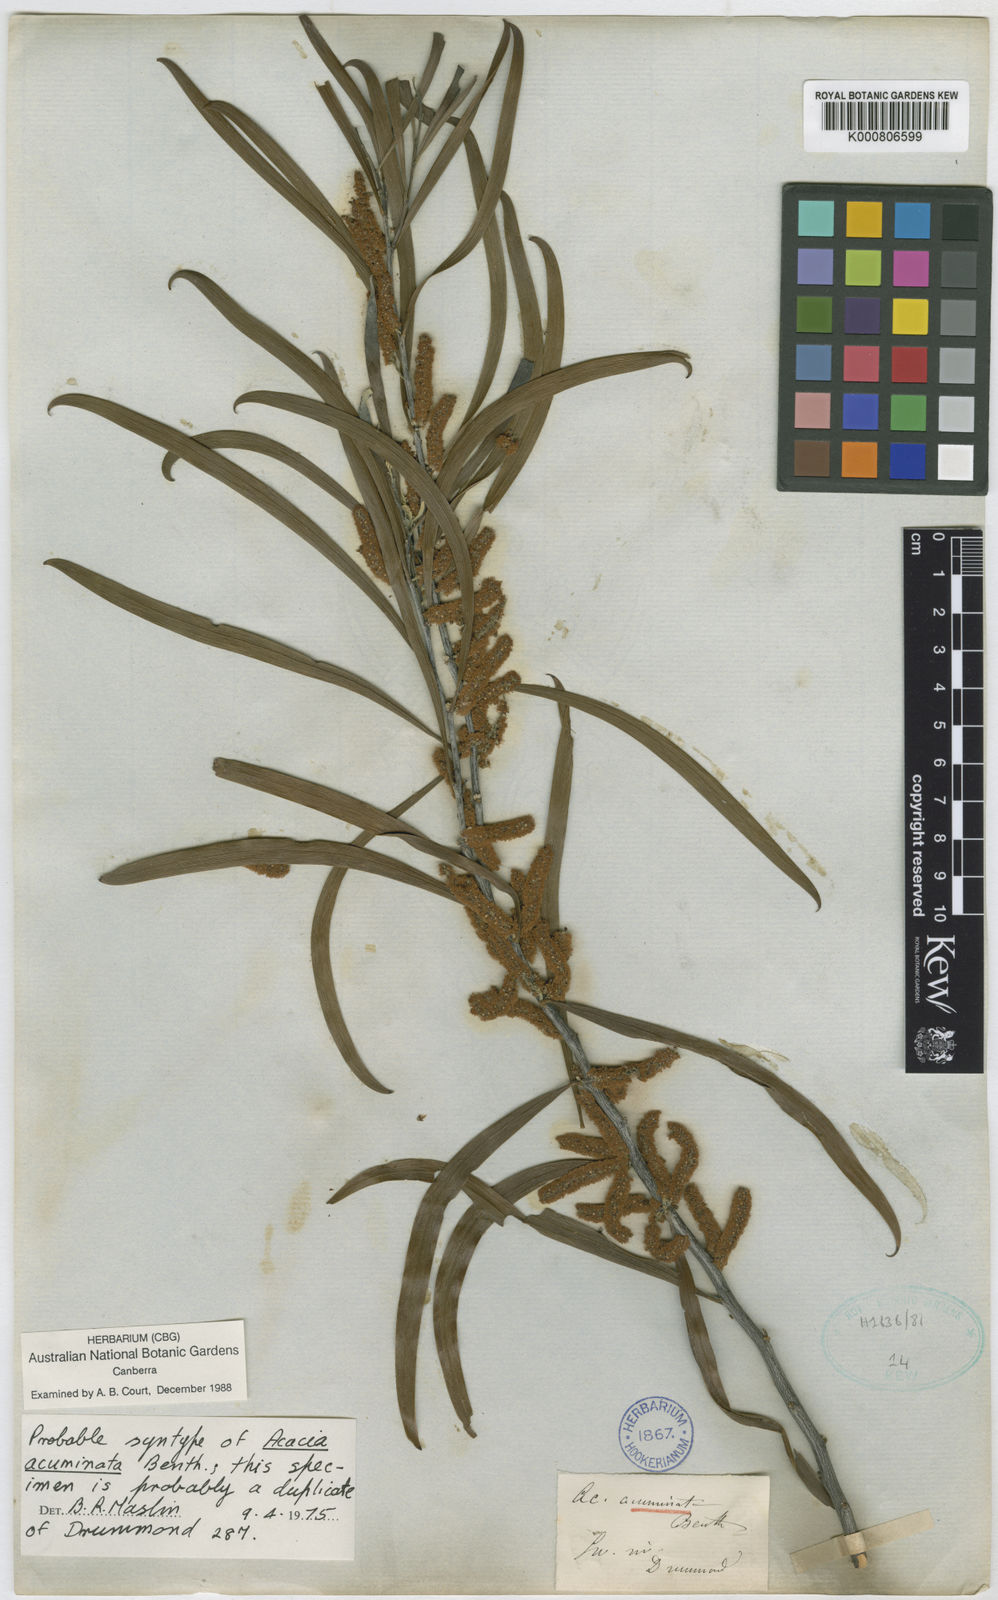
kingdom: Plantae
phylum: Tracheophyta
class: Magnoliopsida
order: Fabales
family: Fabaceae
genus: Acacia
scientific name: Acacia acuminata
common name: Jam wattle
